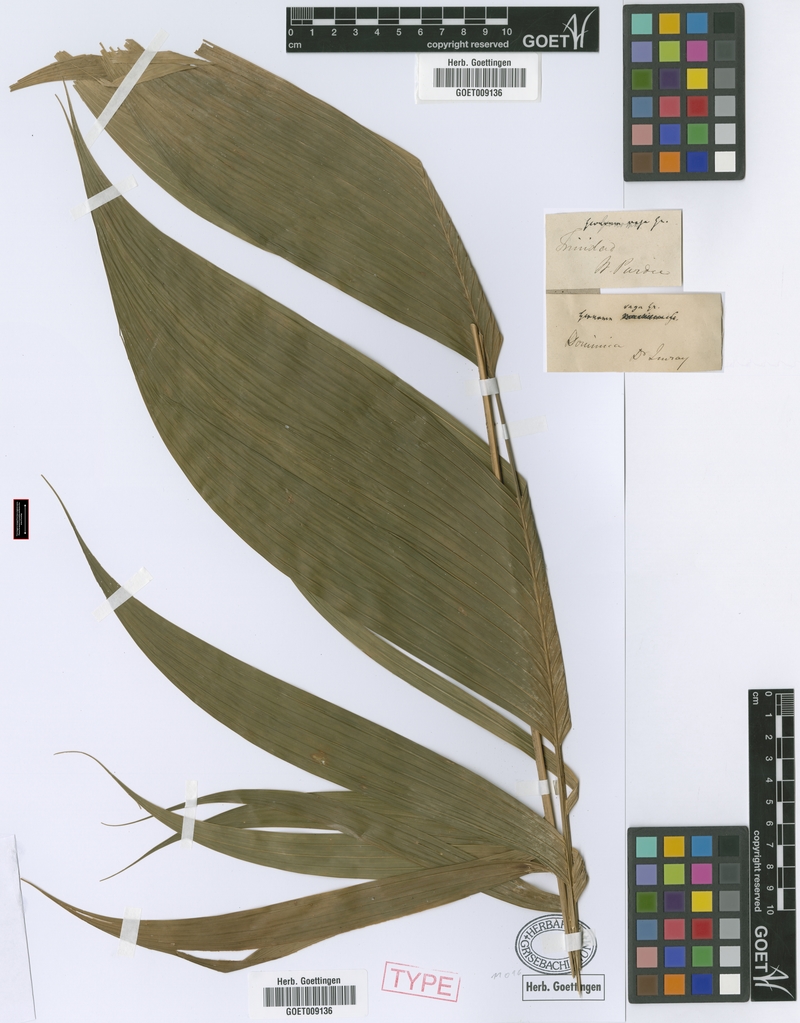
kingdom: Plantae
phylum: Tracheophyta
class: Liliopsida
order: Arecales
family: Arecaceae
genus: Geonoma
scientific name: Geonoma pinnatifrons
